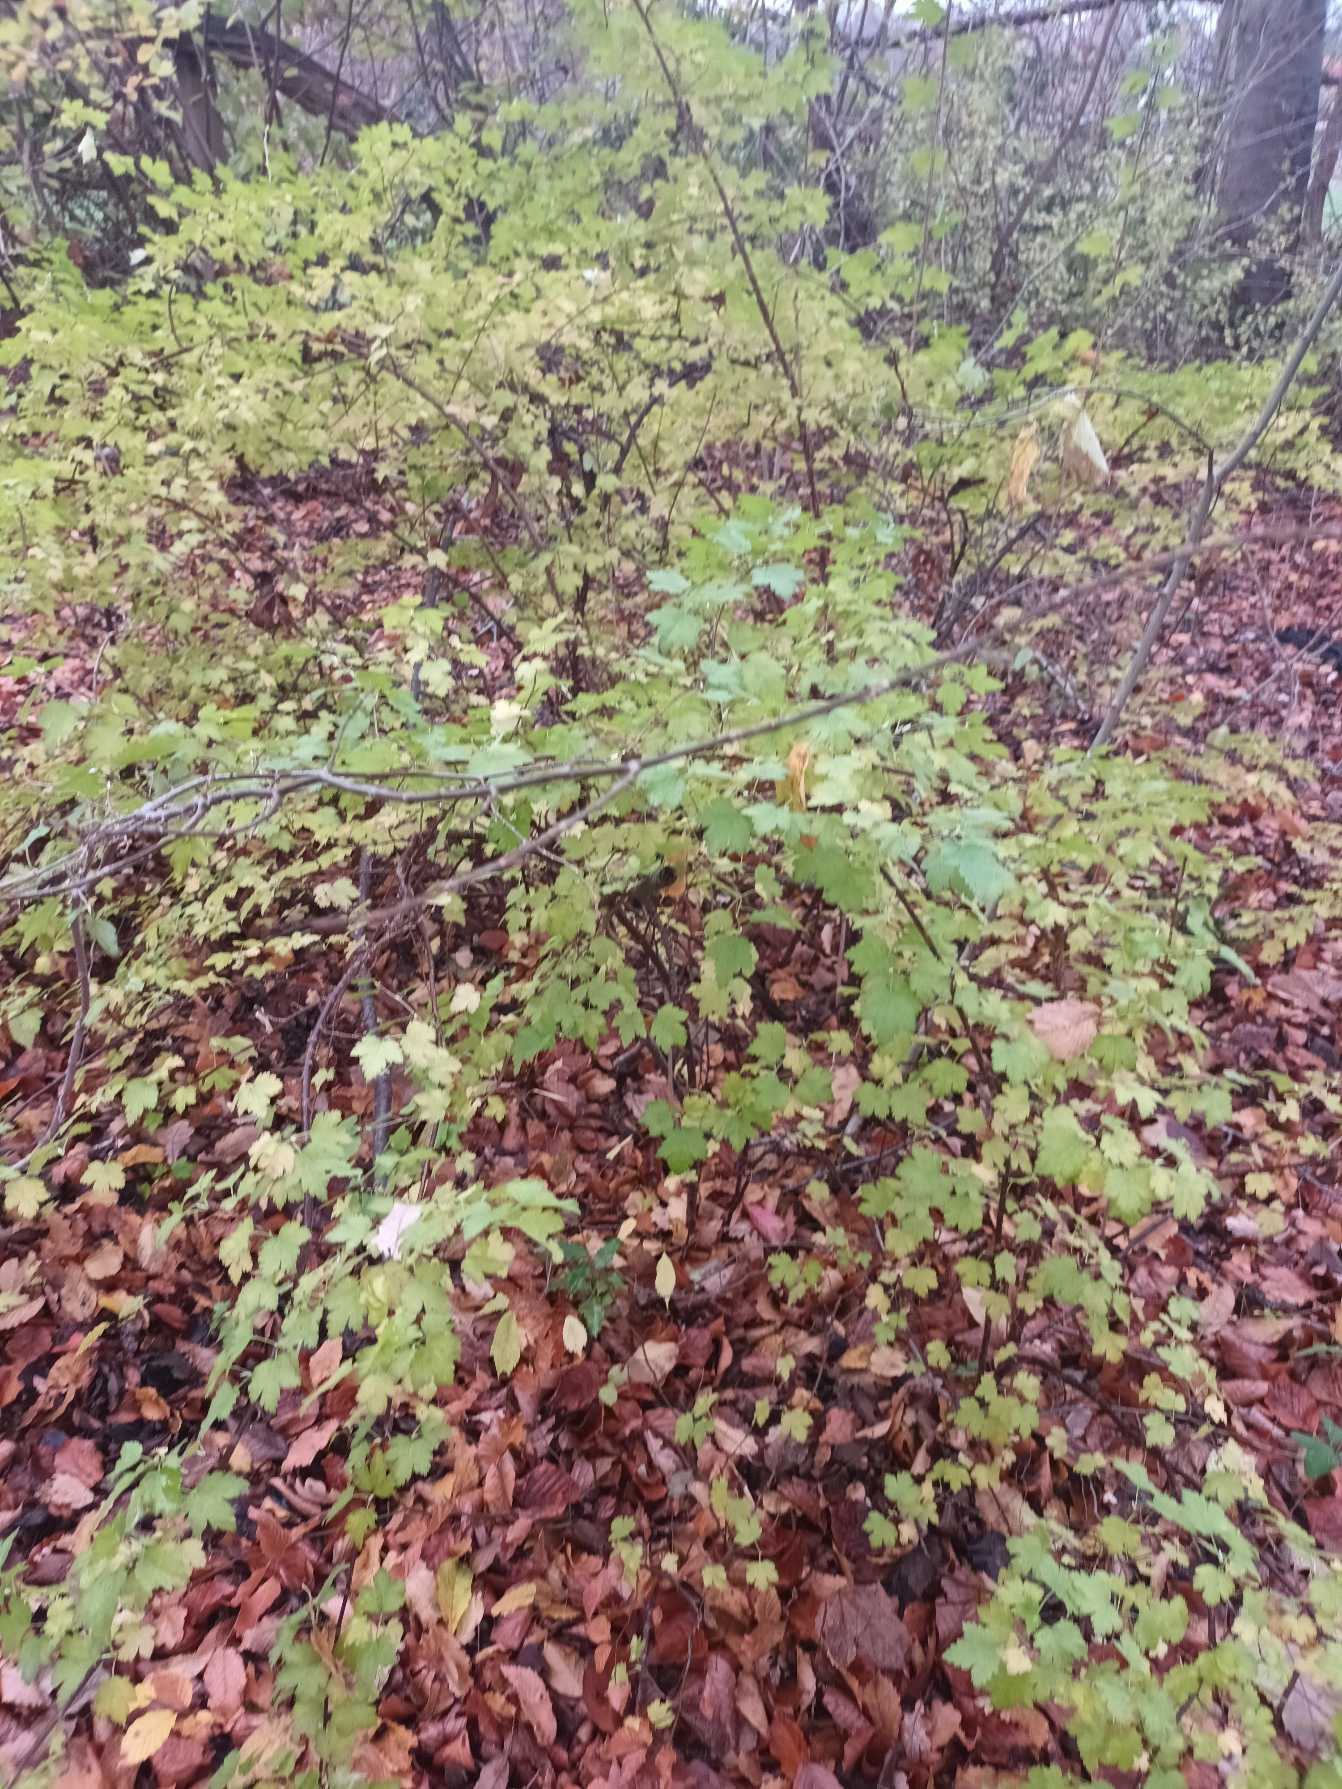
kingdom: Plantae
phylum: Tracheophyta
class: Magnoliopsida
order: Saxifragales
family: Grossulariaceae
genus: Ribes
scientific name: Ribes alpinum
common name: Fjeld-ribs
